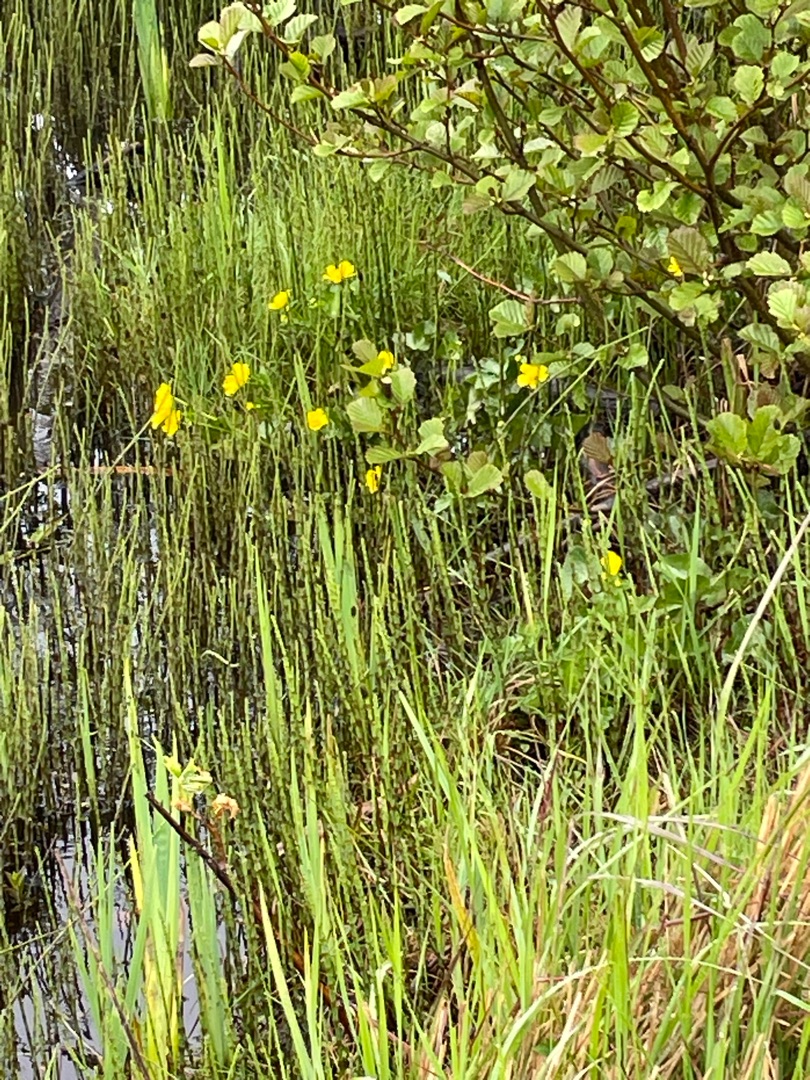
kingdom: Plantae
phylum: Tracheophyta
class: Magnoliopsida
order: Ranunculales
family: Ranunculaceae
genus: Caltha
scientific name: Caltha palustris
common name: Eng-kabbeleje
